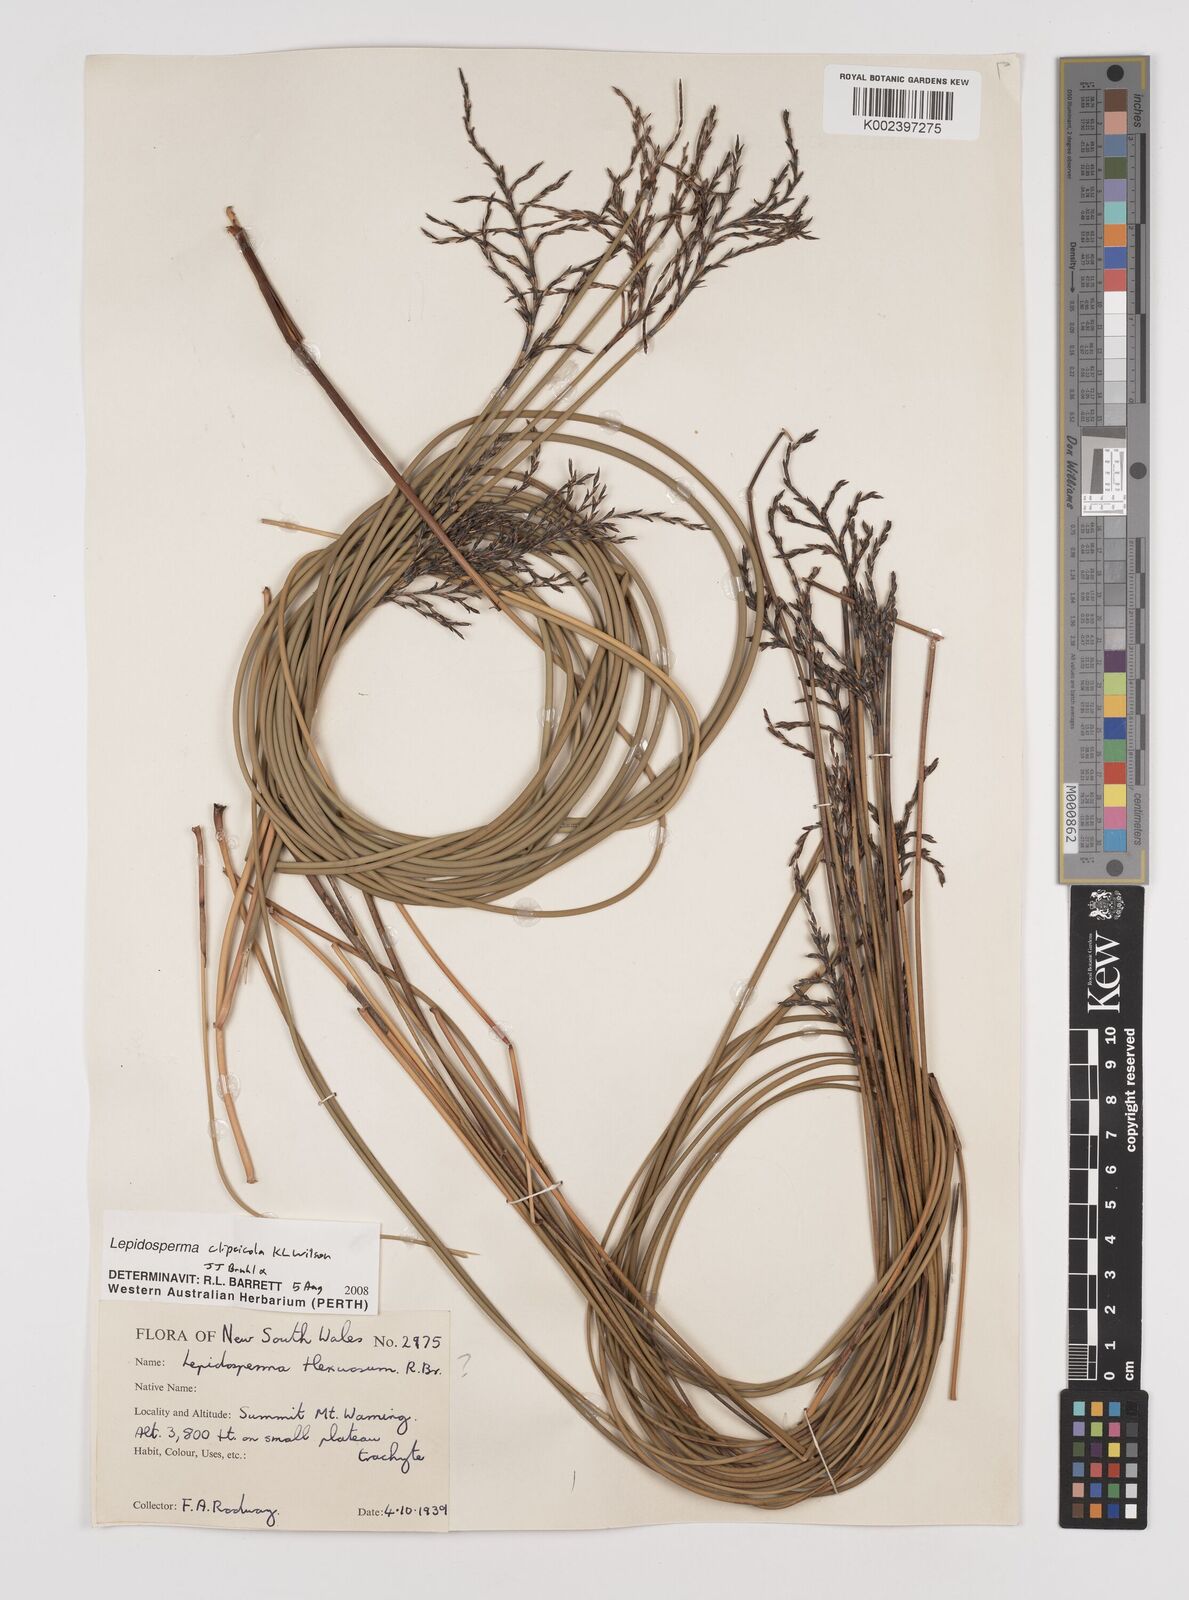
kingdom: Plantae
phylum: Tracheophyta
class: Liliopsida
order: Poales
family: Cyperaceae
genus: Lepidosperma
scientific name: Lepidosperma clipeicola
